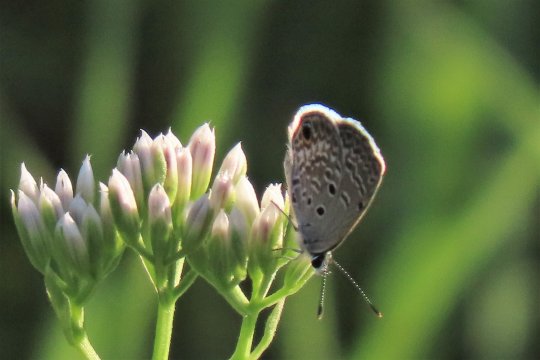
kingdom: Animalia
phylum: Arthropoda
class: Insecta
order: Lepidoptera
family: Lycaenidae
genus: Hemiargus
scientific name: Hemiargus ceraunus
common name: Ceraunus Blue
